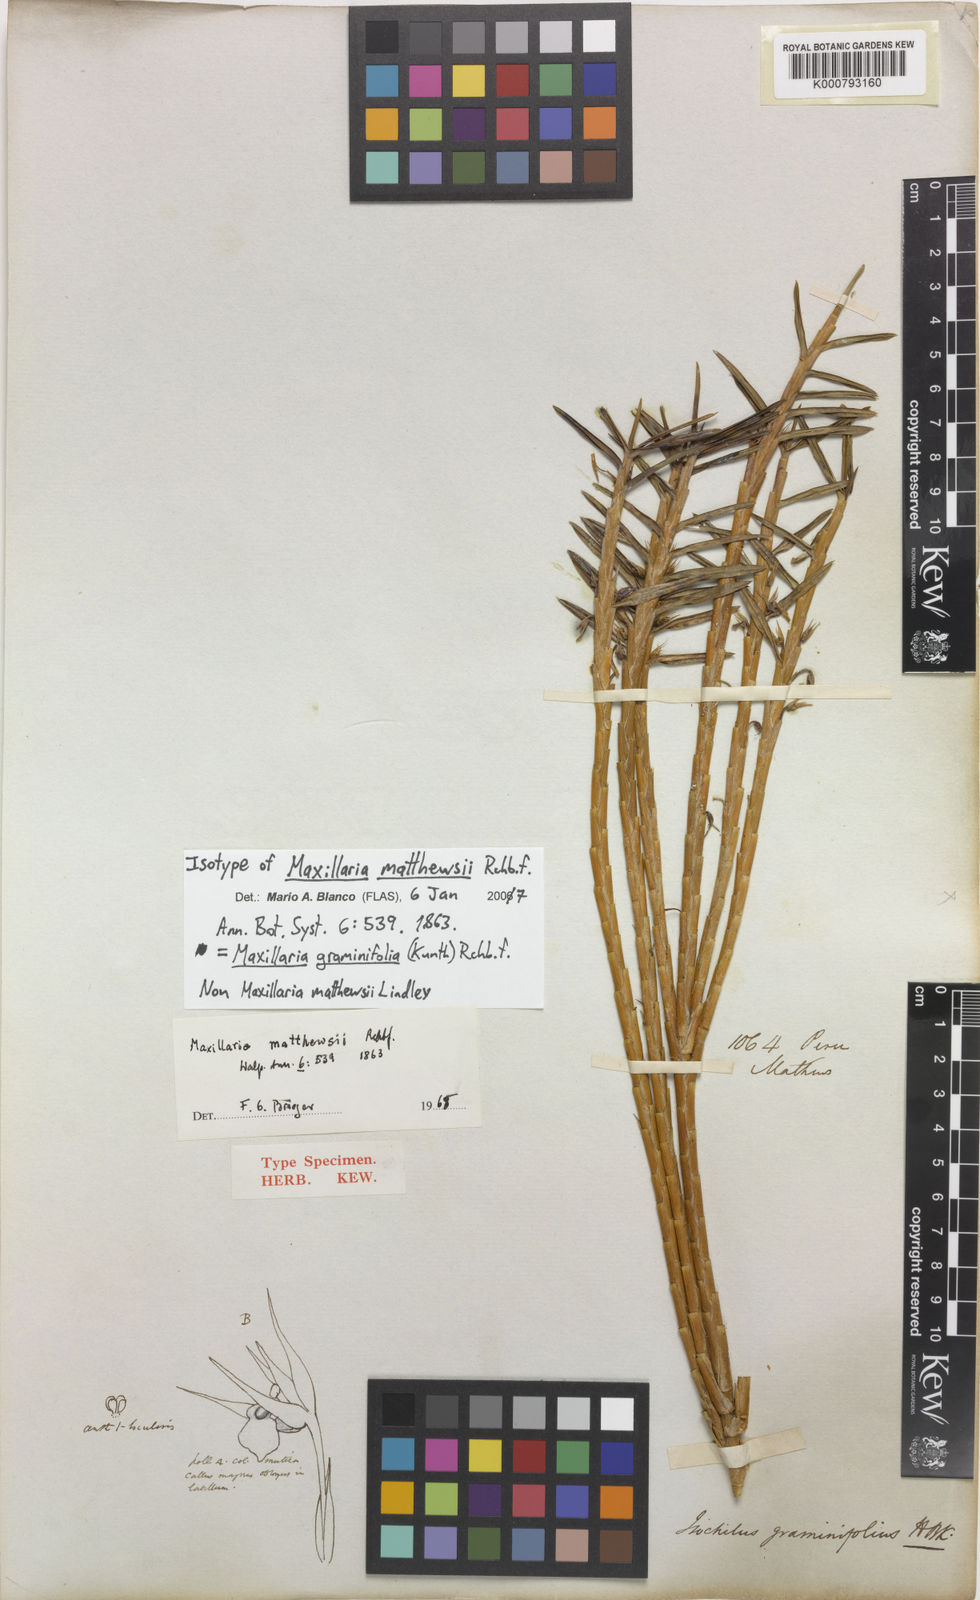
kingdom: Plantae
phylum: Tracheophyta
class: Liliopsida
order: Asparagales
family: Orchidaceae
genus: Maxillaria
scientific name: Maxillaria graminifolia
